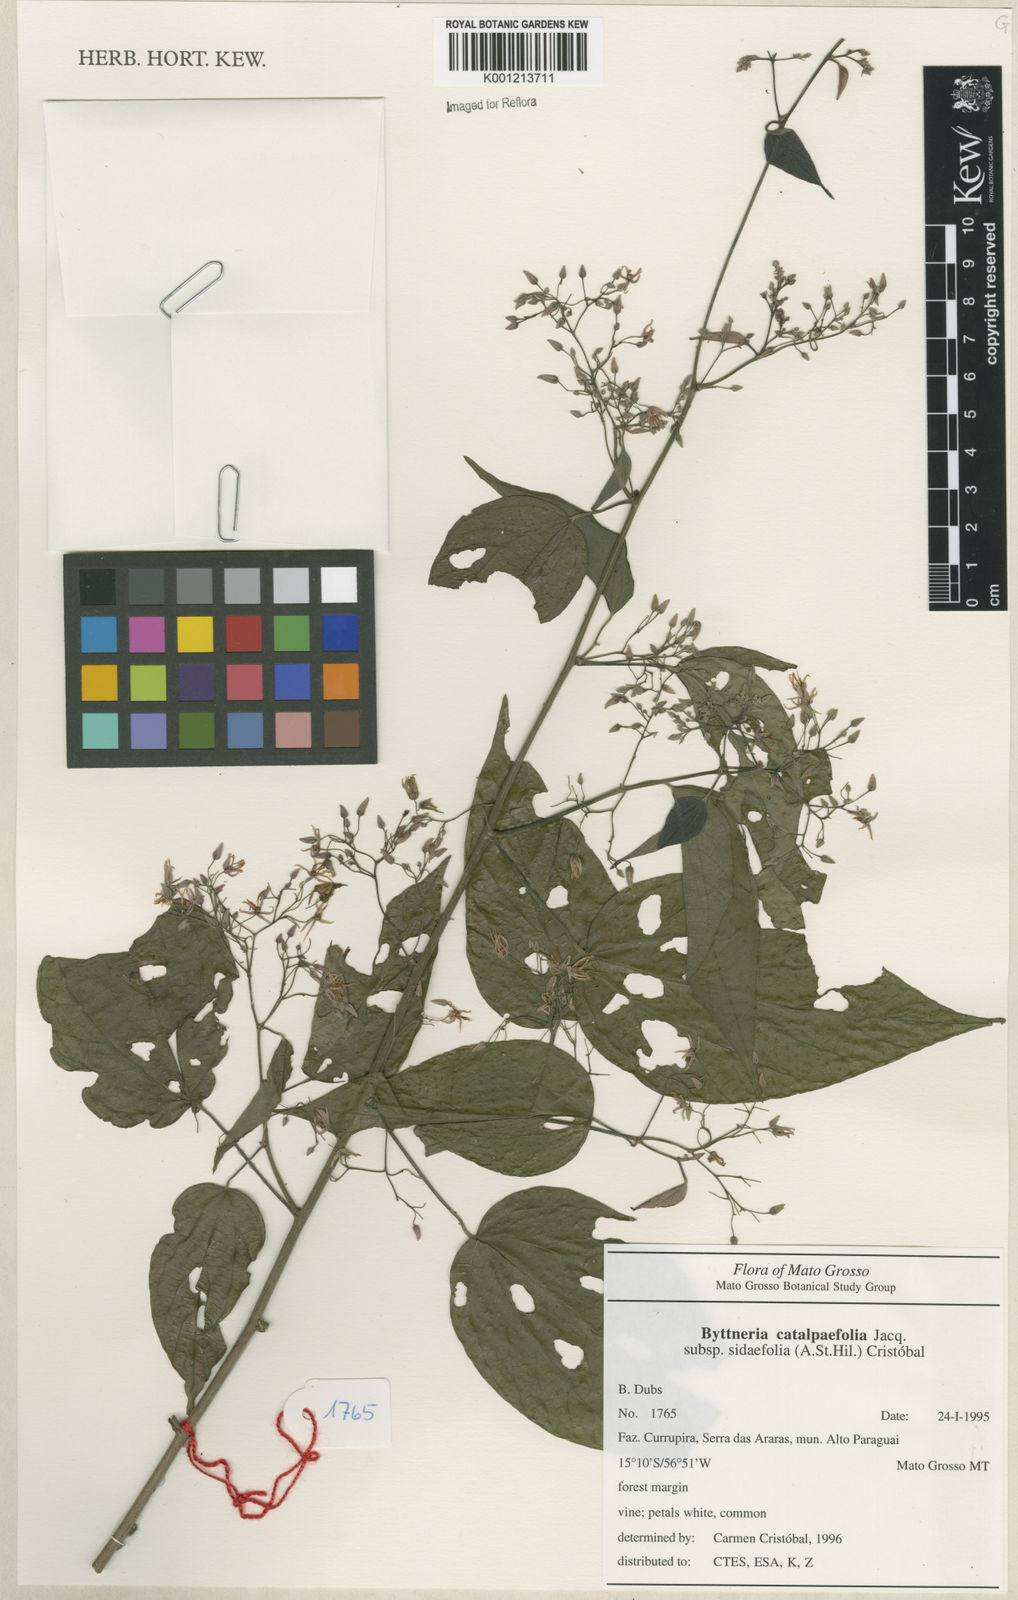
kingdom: Plantae
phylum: Tracheophyta
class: Magnoliopsida
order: Malvales
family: Malvaceae
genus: Byttneria
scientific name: Byttneria catalpifolia
